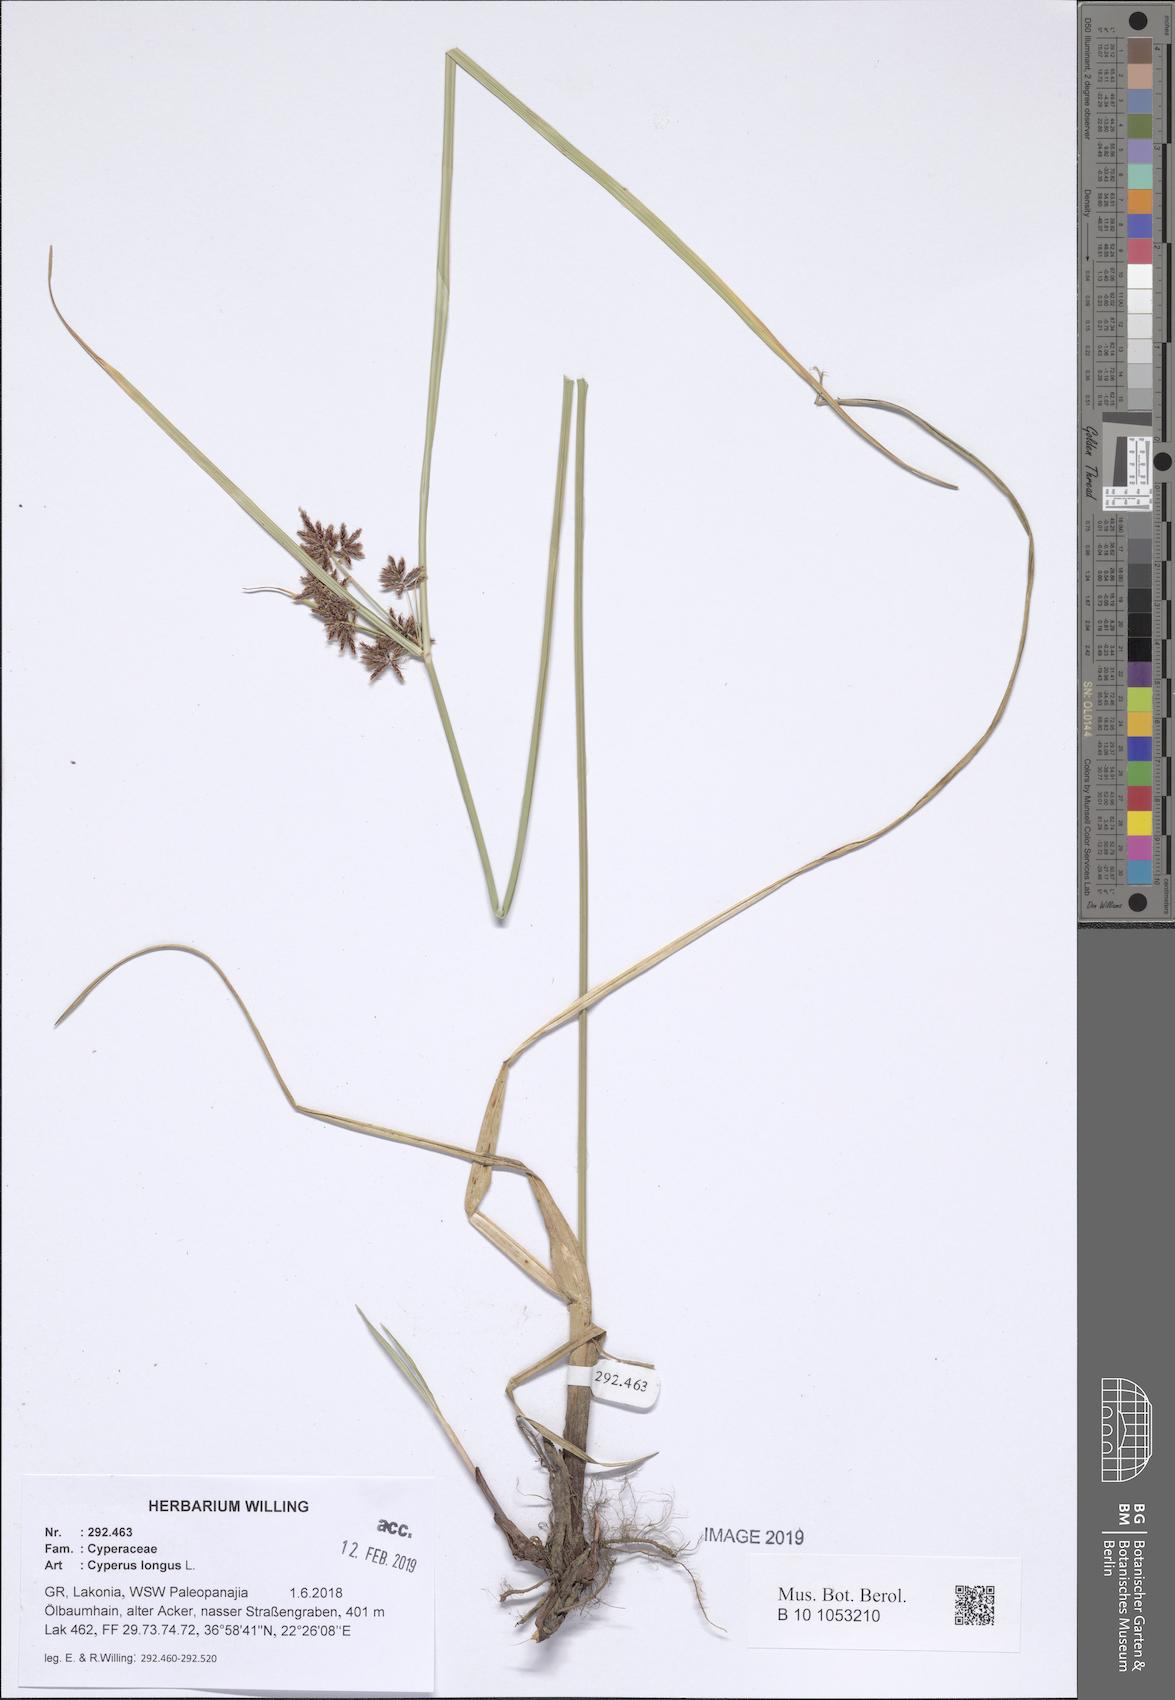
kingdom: Plantae
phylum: Tracheophyta
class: Liliopsida
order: Poales
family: Cyperaceae
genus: Cyperus
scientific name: Cyperus longus
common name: Galingale
